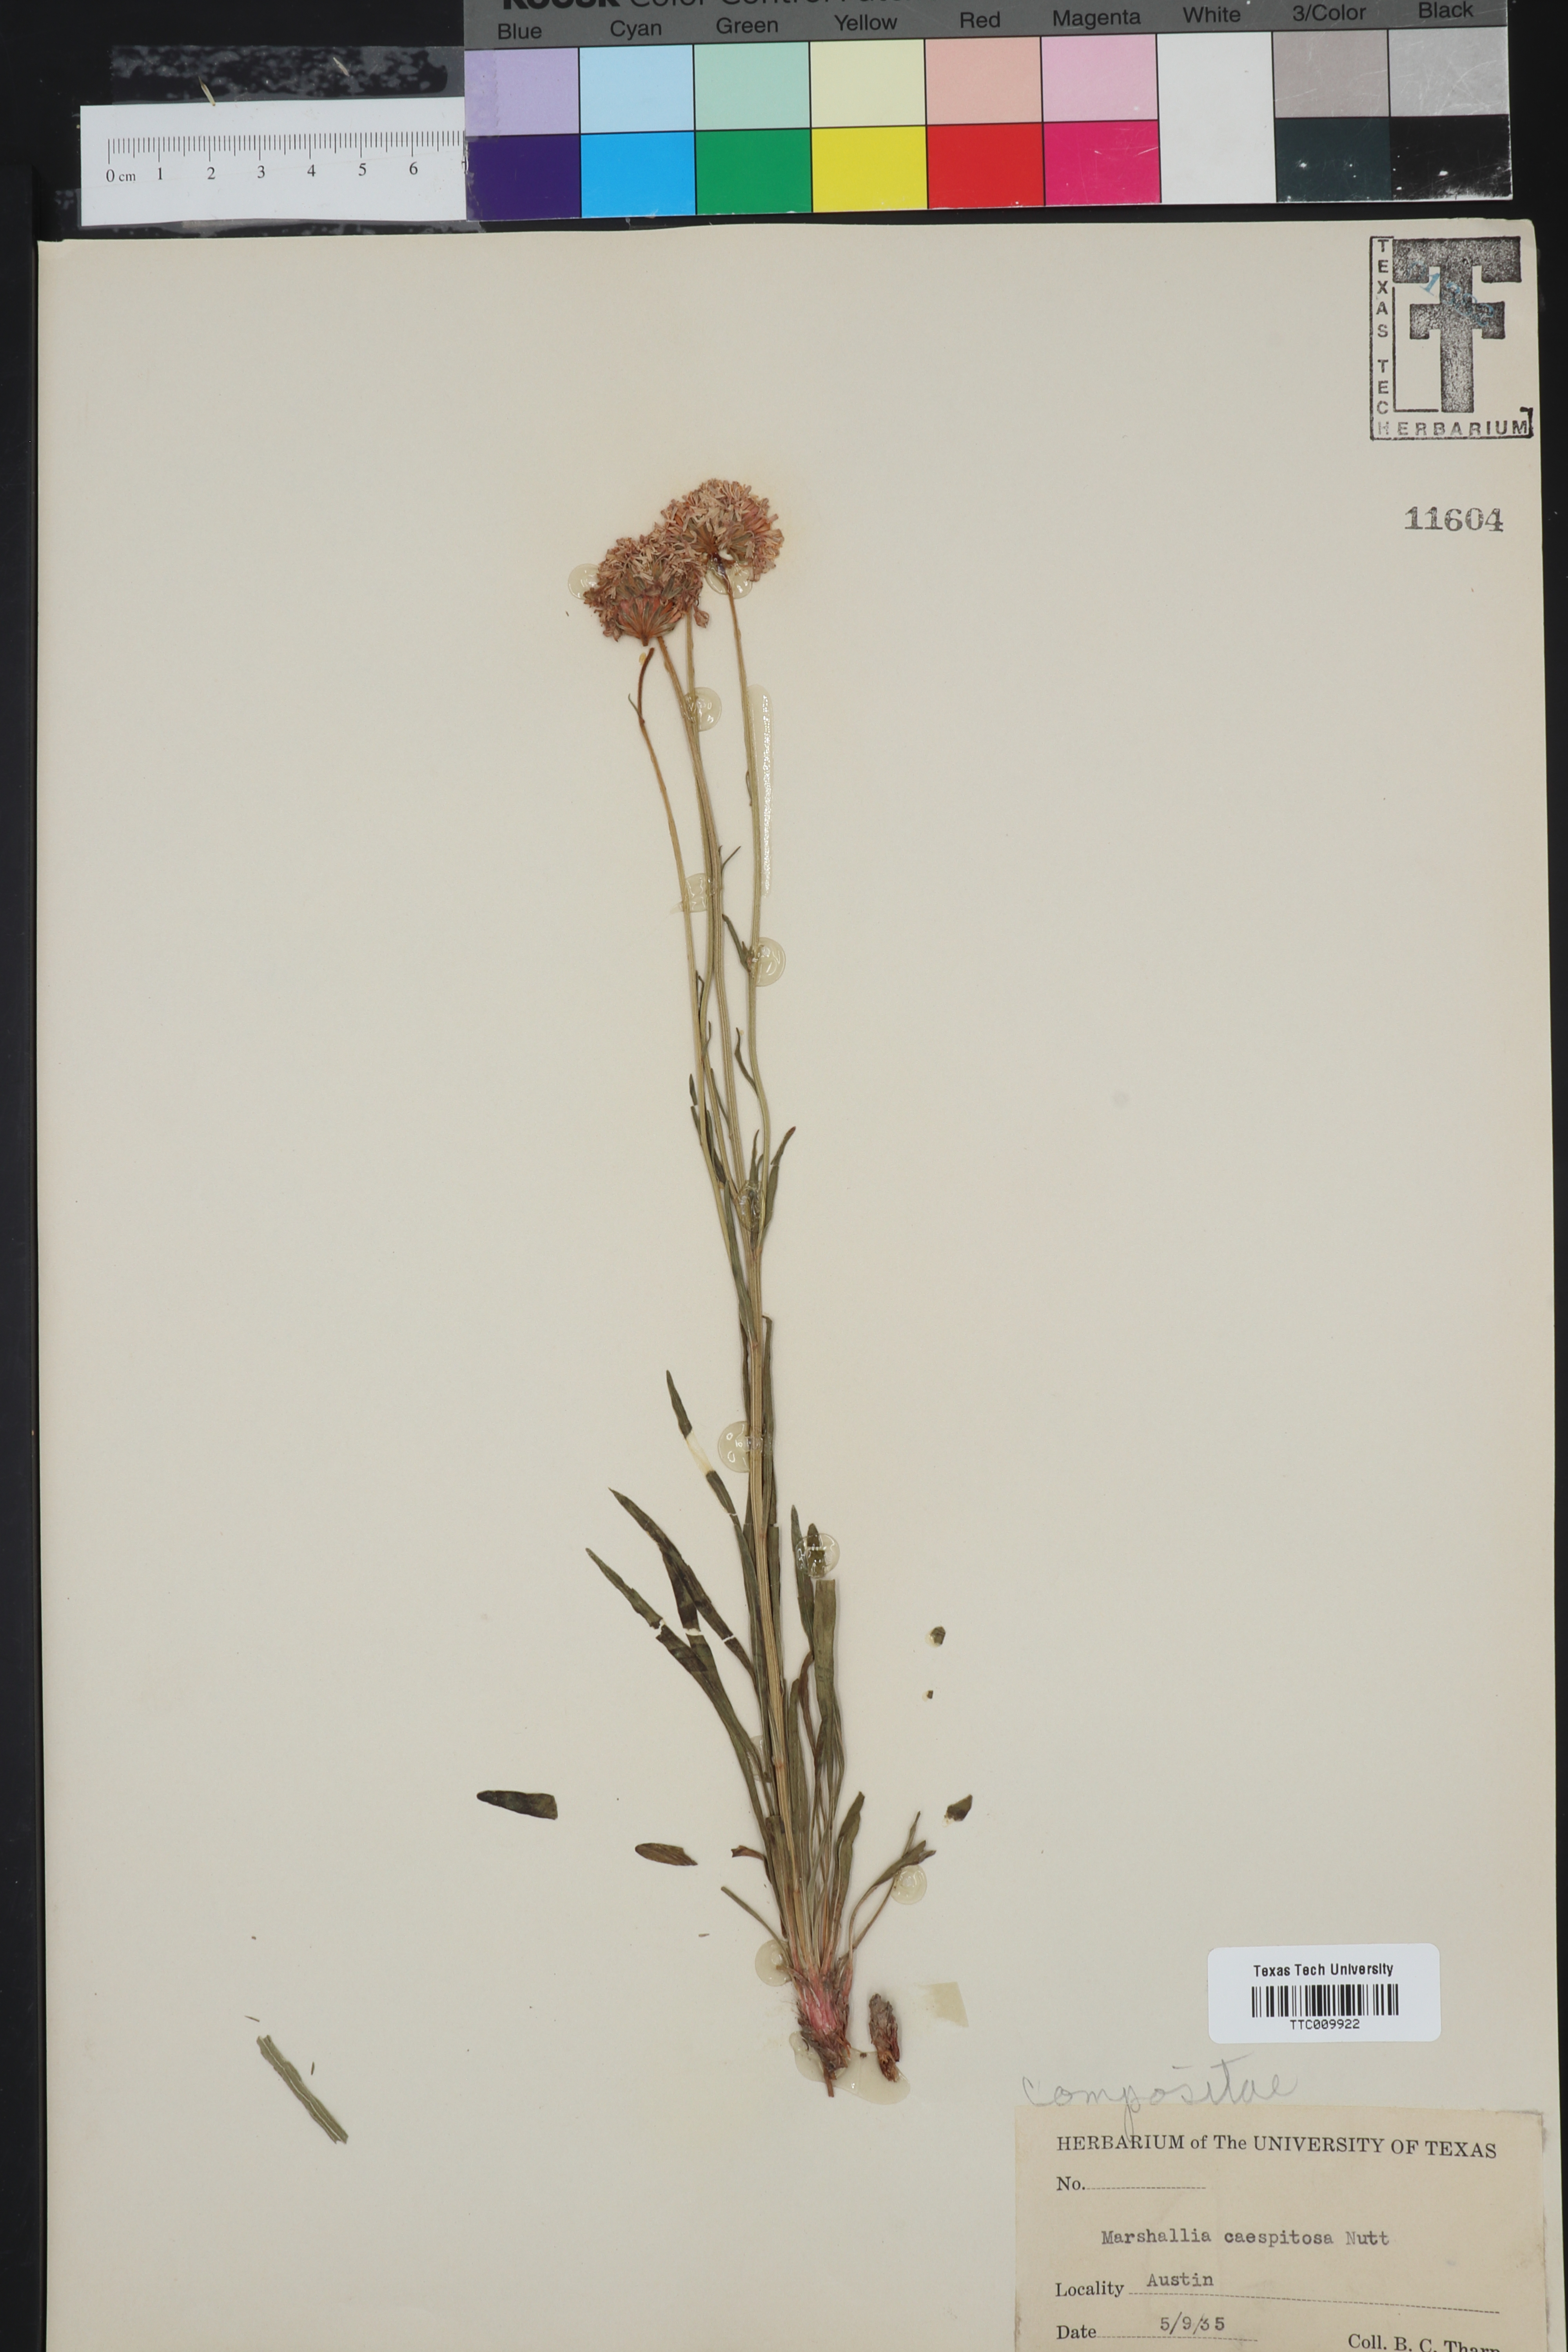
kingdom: Plantae
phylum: Tracheophyta
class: Magnoliopsida
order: Asterales
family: Asteraceae
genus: Marshallia
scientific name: Marshallia caespitosa
